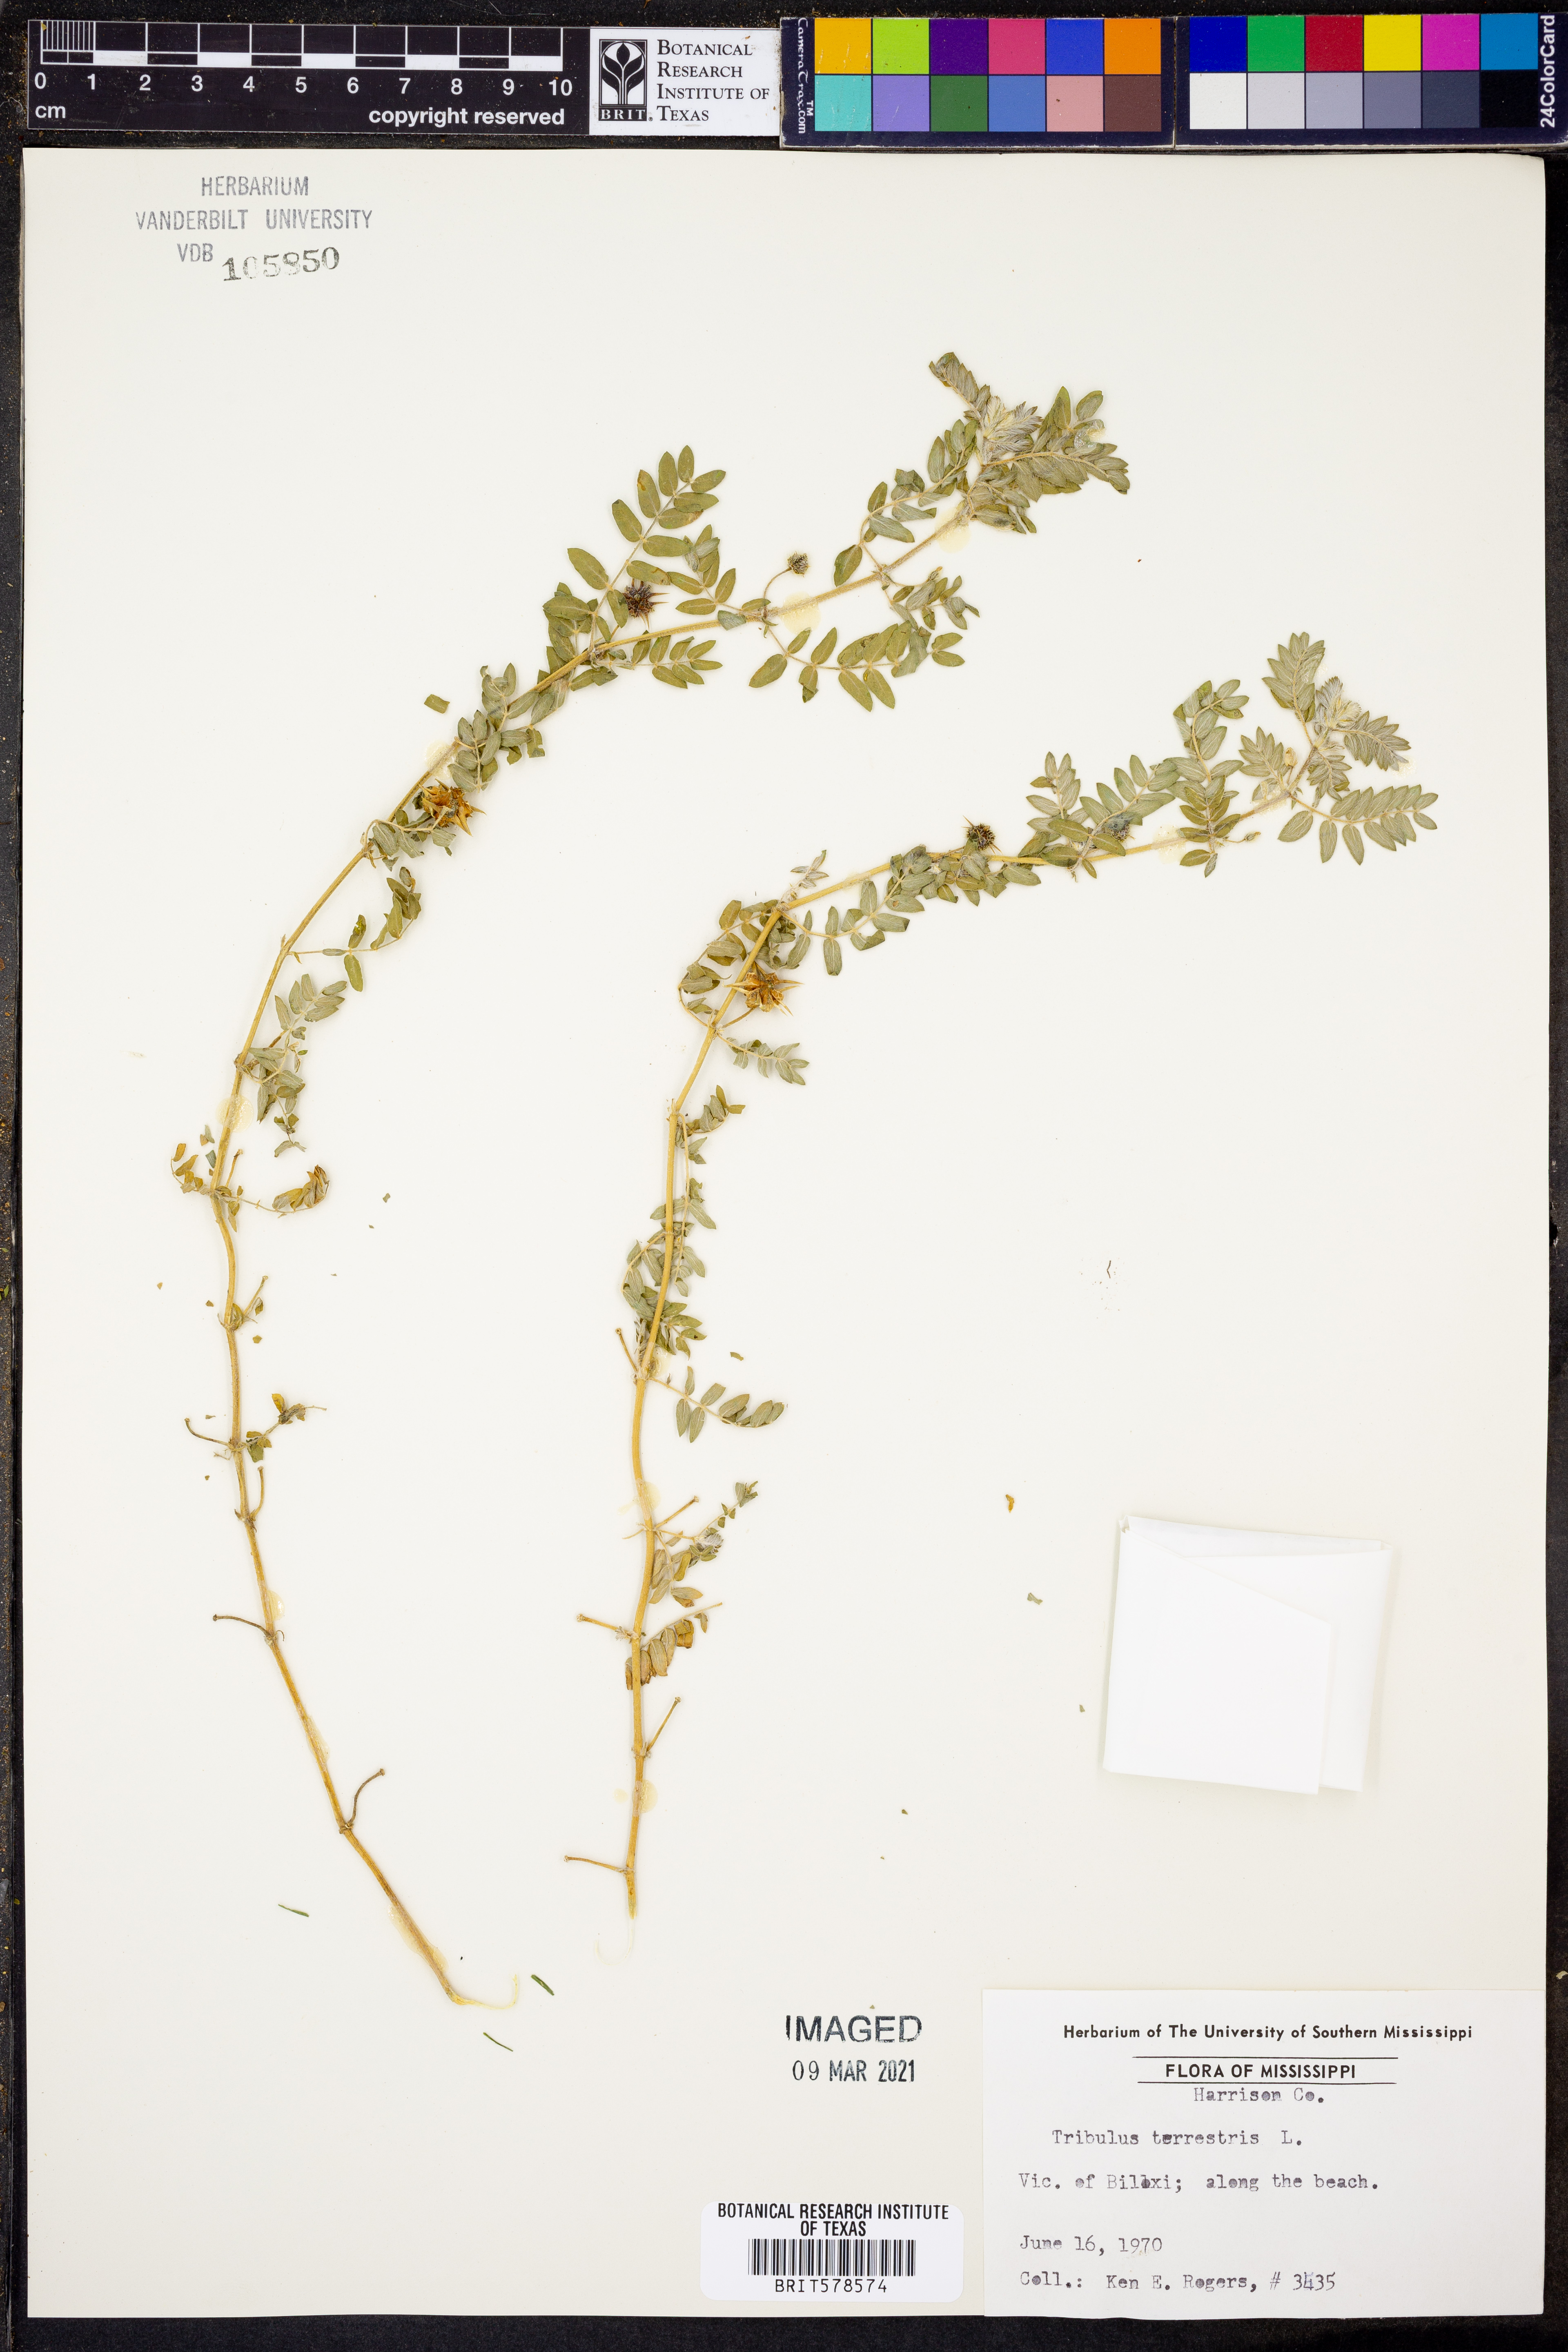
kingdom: Plantae
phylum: Tracheophyta
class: Magnoliopsida
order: Zygophyllales
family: Zygophyllaceae
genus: Tribulus
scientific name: Tribulus terrestris
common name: Puncturevine
